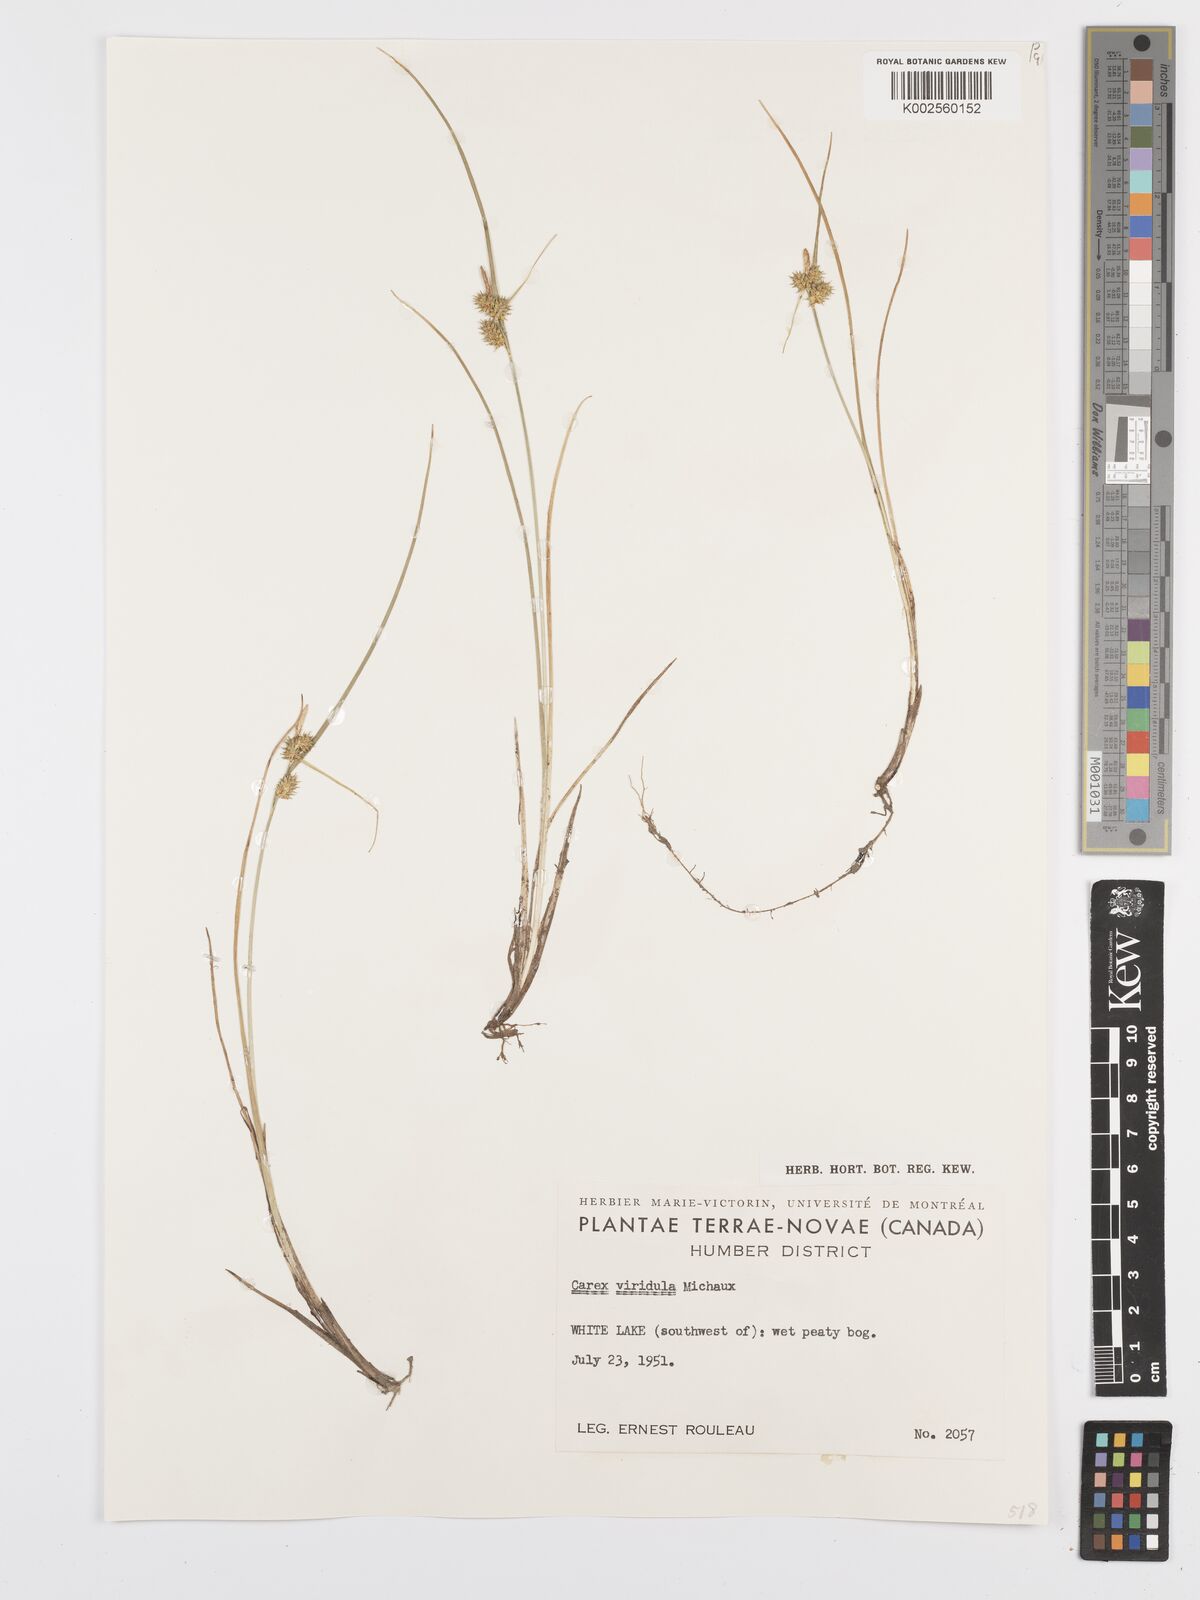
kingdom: Plantae
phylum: Tracheophyta
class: Liliopsida
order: Poales
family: Cyperaceae
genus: Carex
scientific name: Carex oederi
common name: Common & small-fruited yellow-sedge
